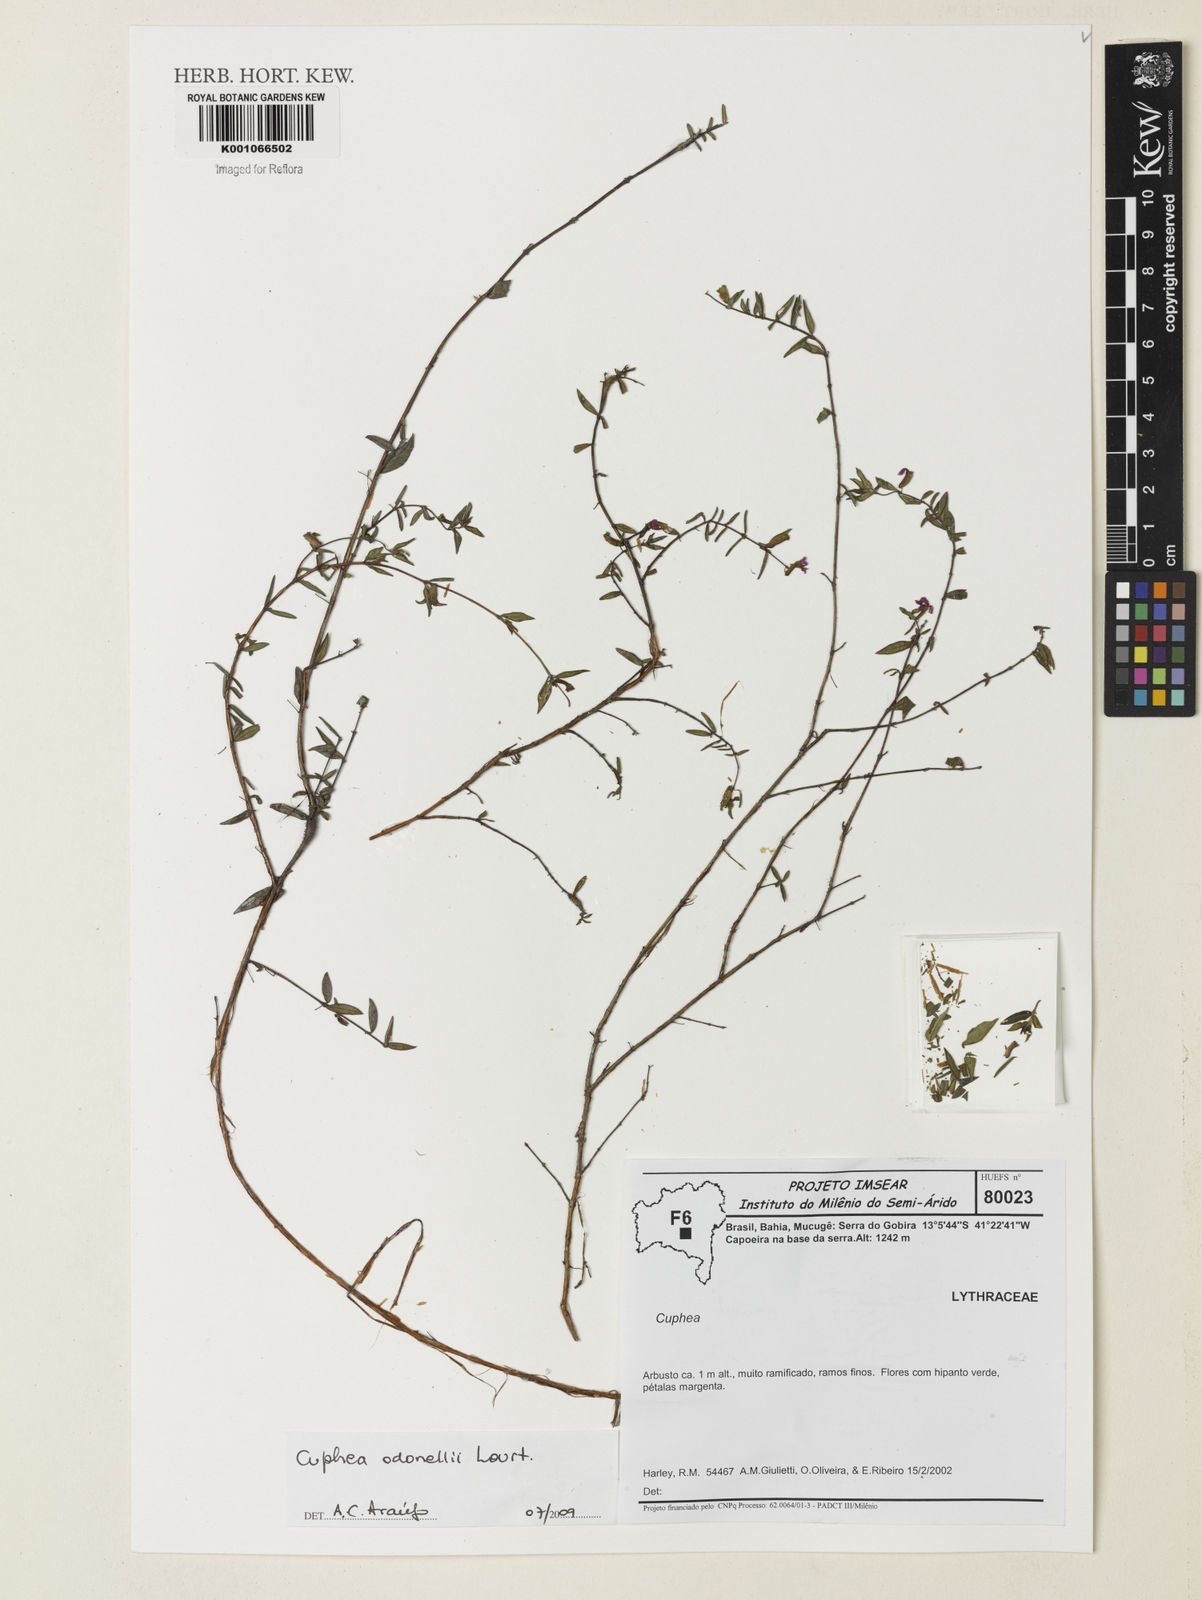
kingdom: Plantae
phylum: Tracheophyta
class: Magnoliopsida
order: Myrtales
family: Lythraceae
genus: Cuphea
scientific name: Cuphea odonellii
